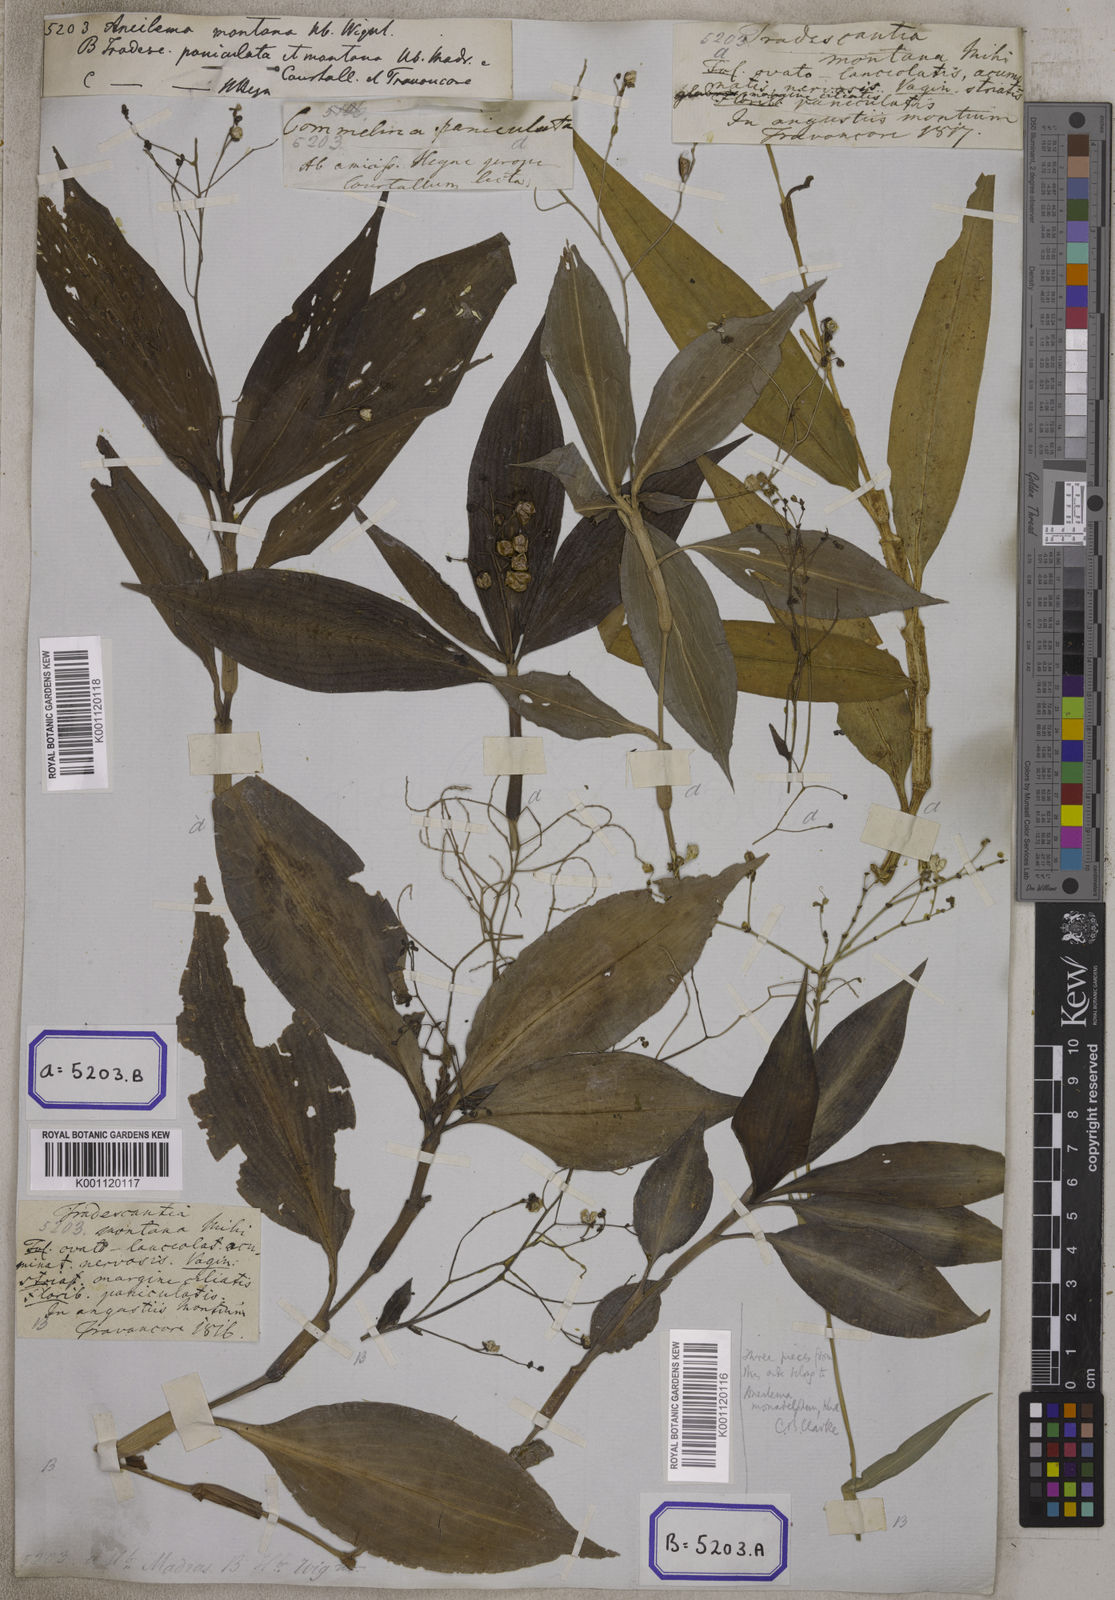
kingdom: Plantae
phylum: Tracheophyta
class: Liliopsida
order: Commelinales
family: Commelinaceae
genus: Dictyospermum
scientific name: Dictyospermum montanum
